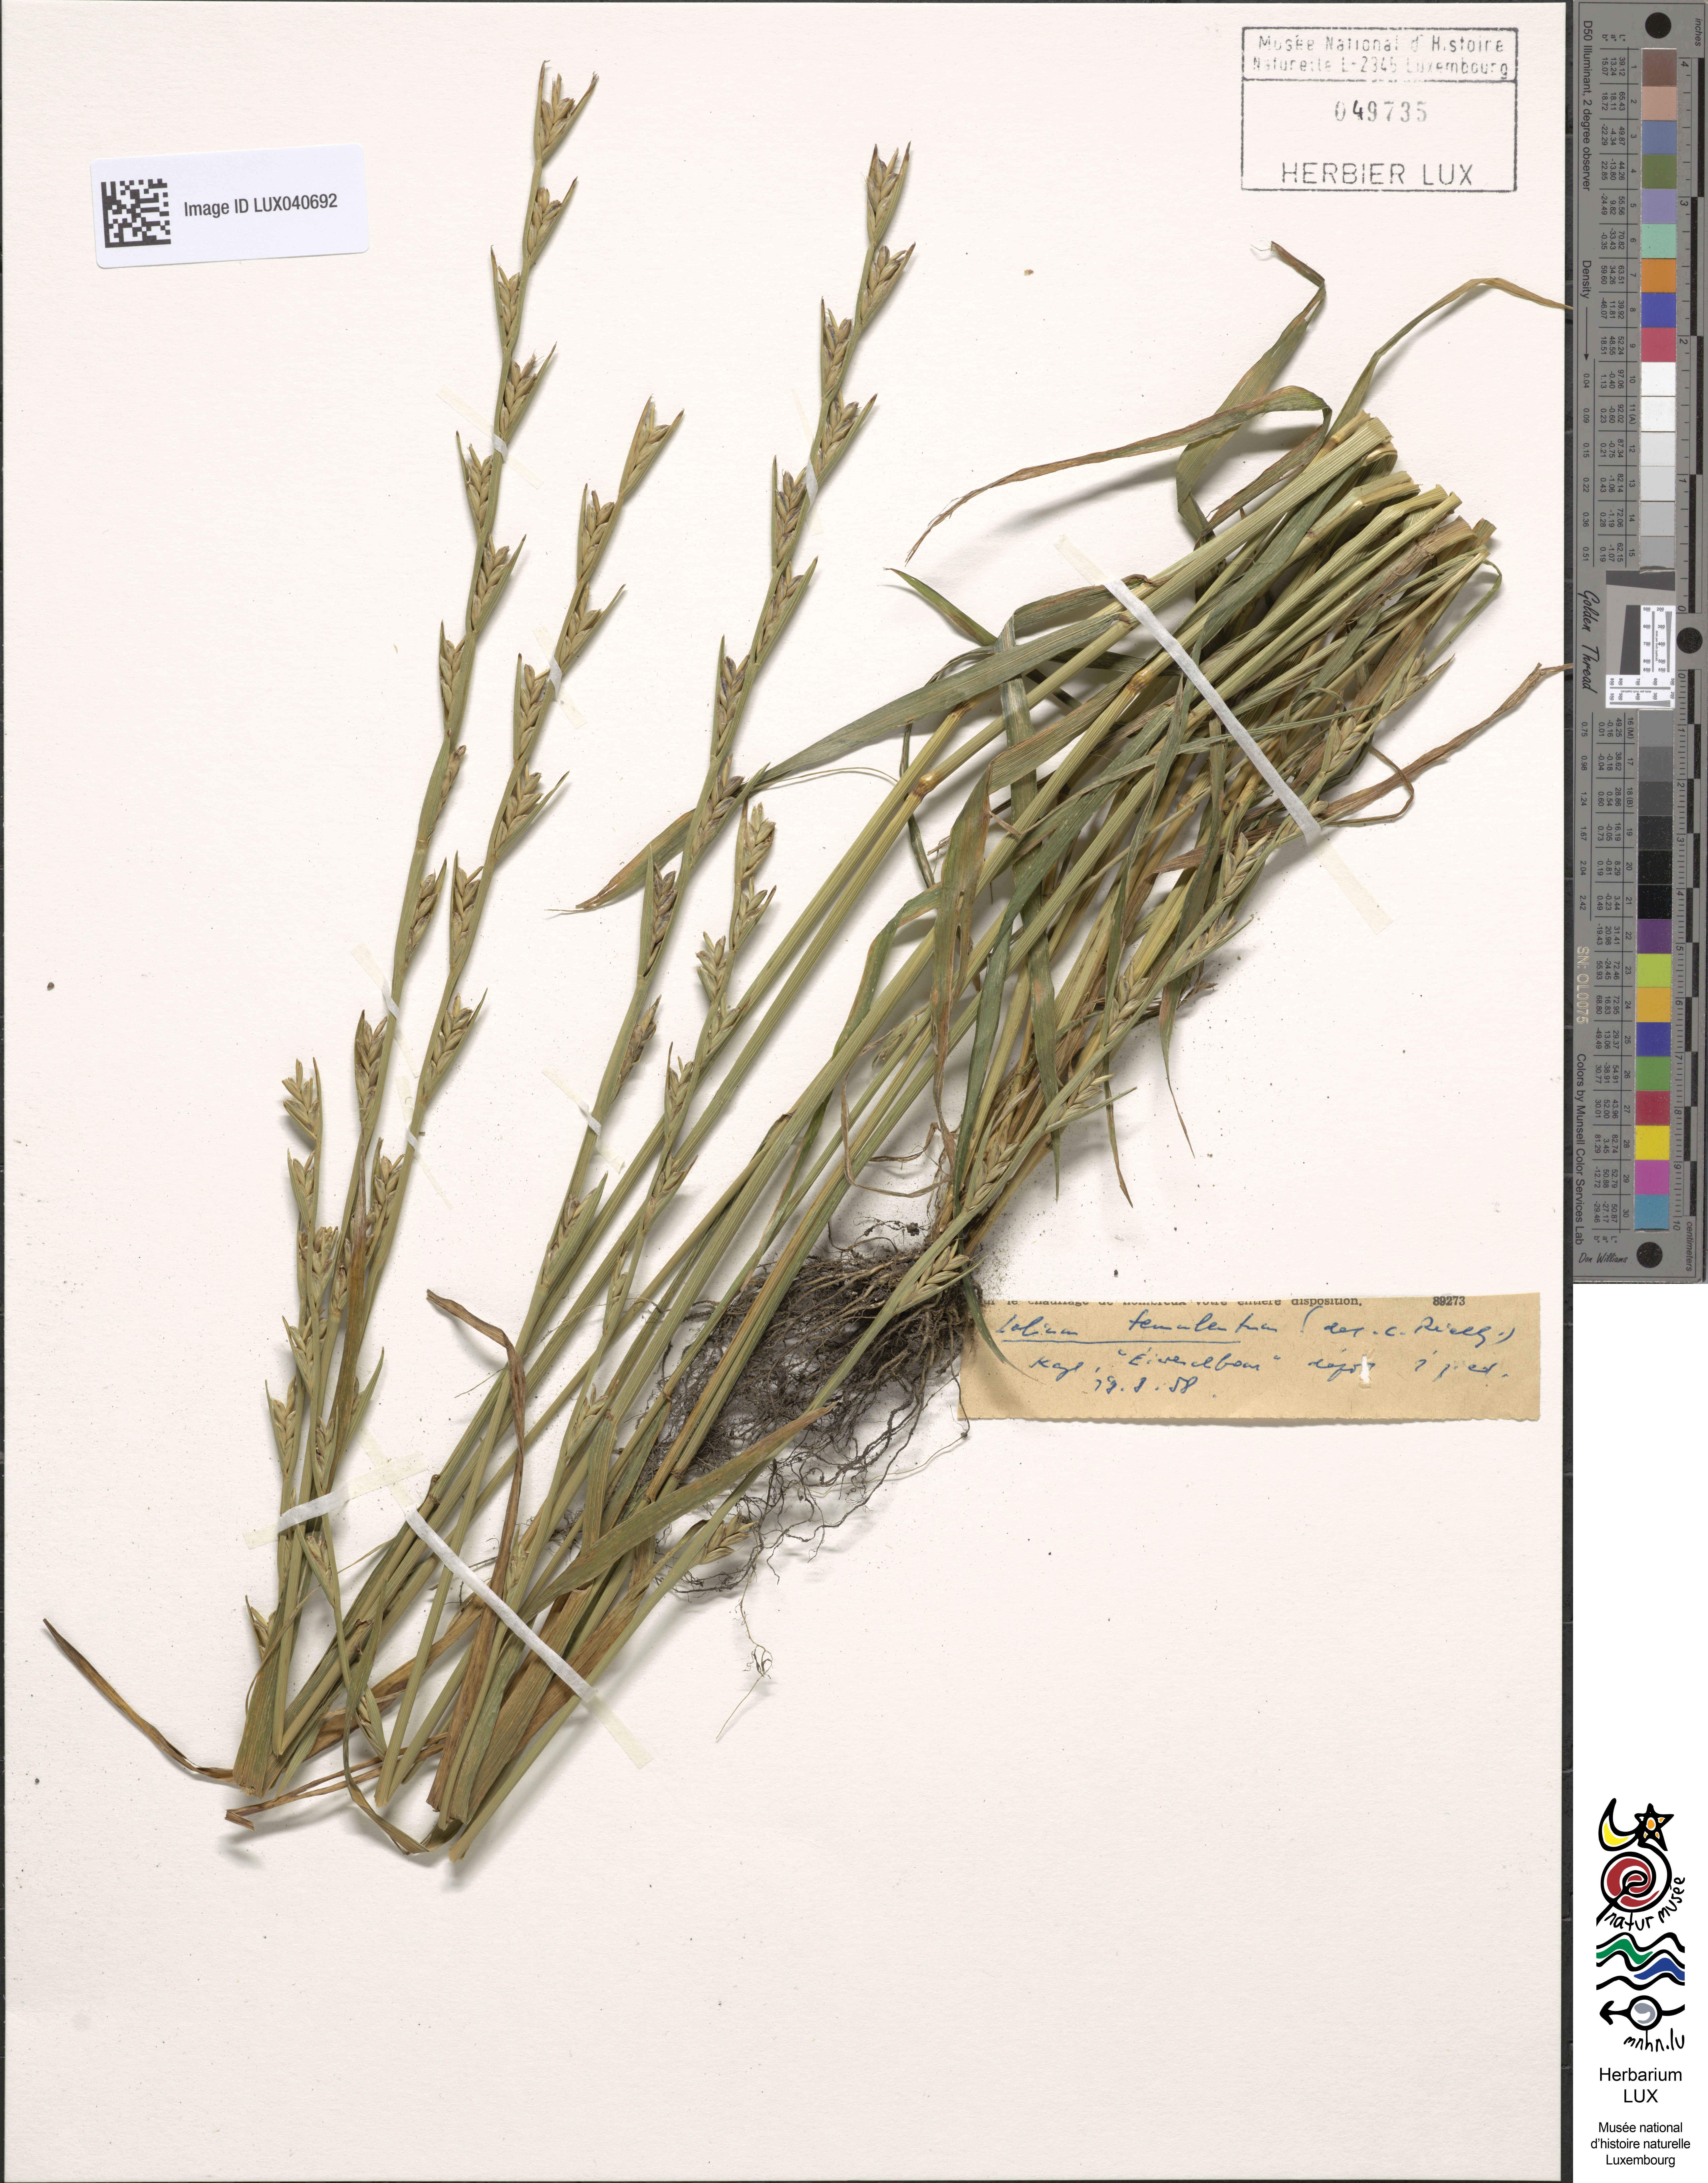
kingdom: Plantae
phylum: Tracheophyta
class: Liliopsida
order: Poales
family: Poaceae
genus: Lolium
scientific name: Lolium temulentum
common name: Darnel
